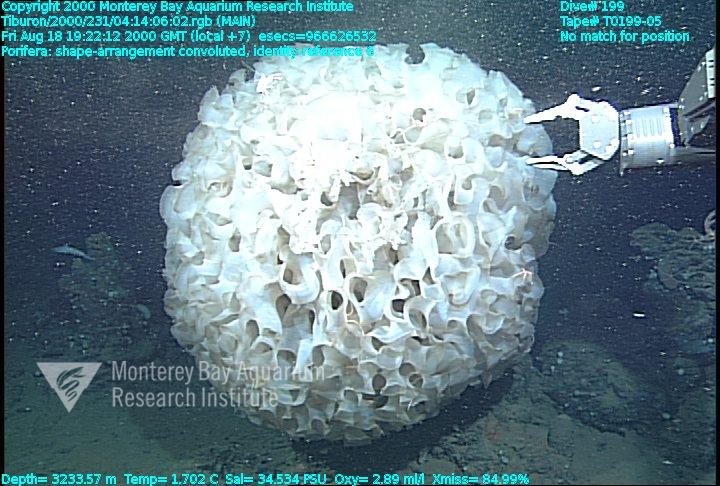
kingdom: Animalia
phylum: Porifera
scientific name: Porifera
